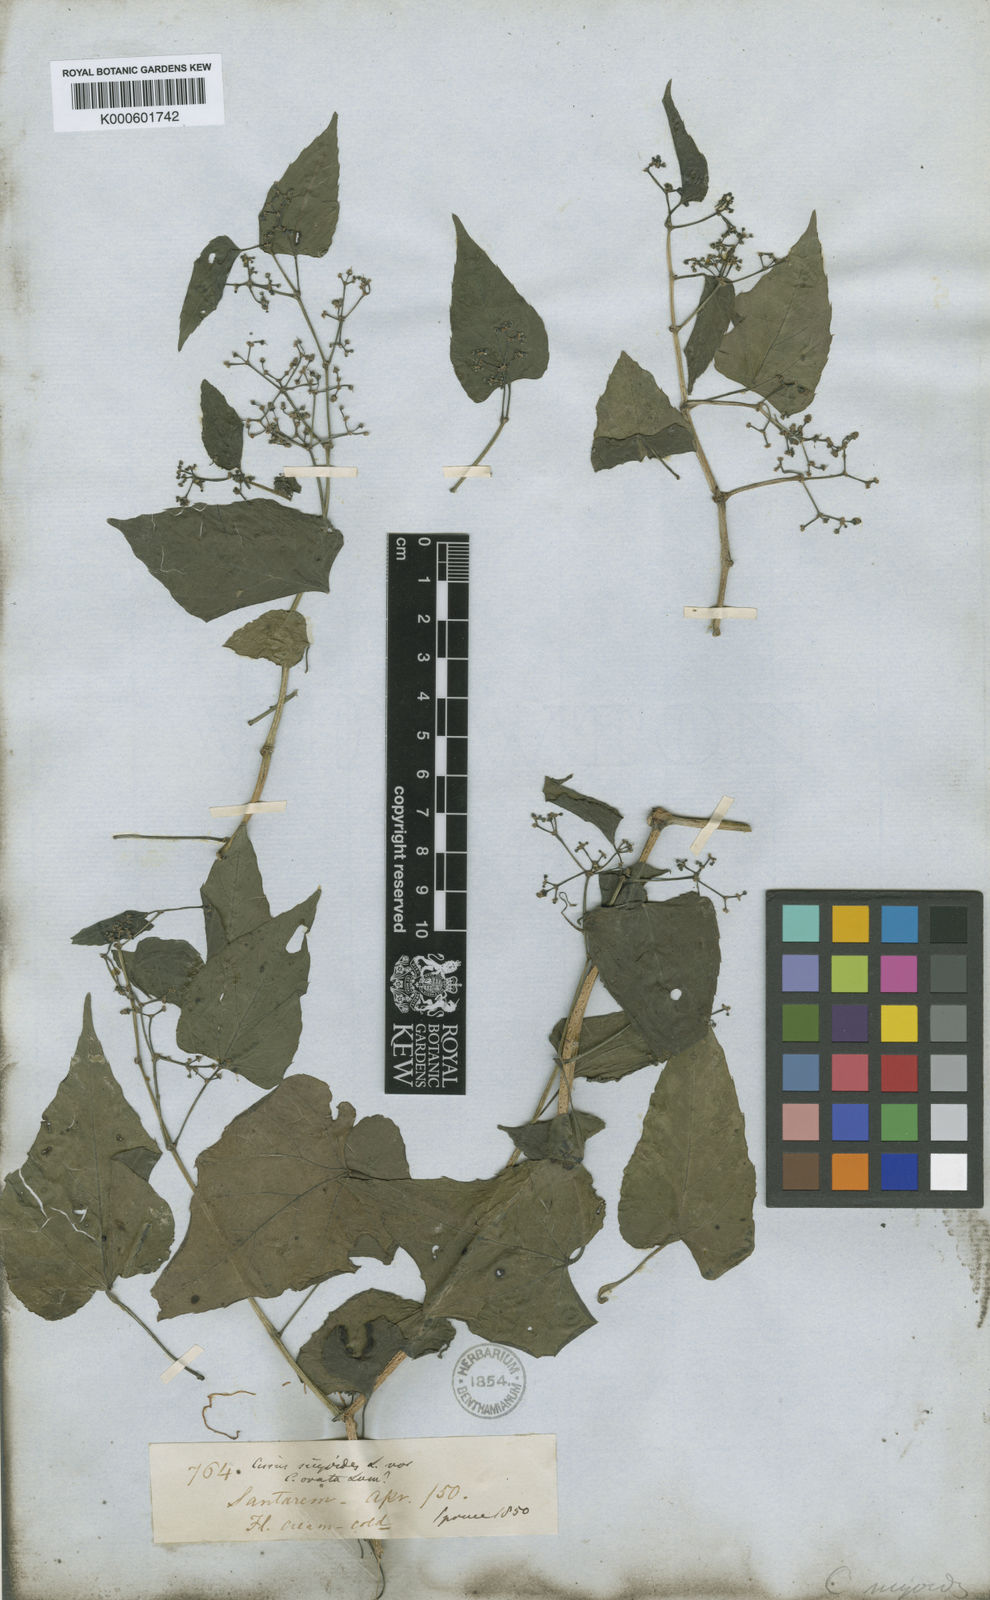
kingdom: Plantae
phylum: Tracheophyta
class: Magnoliopsida
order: Vitales
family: Vitaceae
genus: Cissus
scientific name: Cissus verticillata
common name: Princess vine
